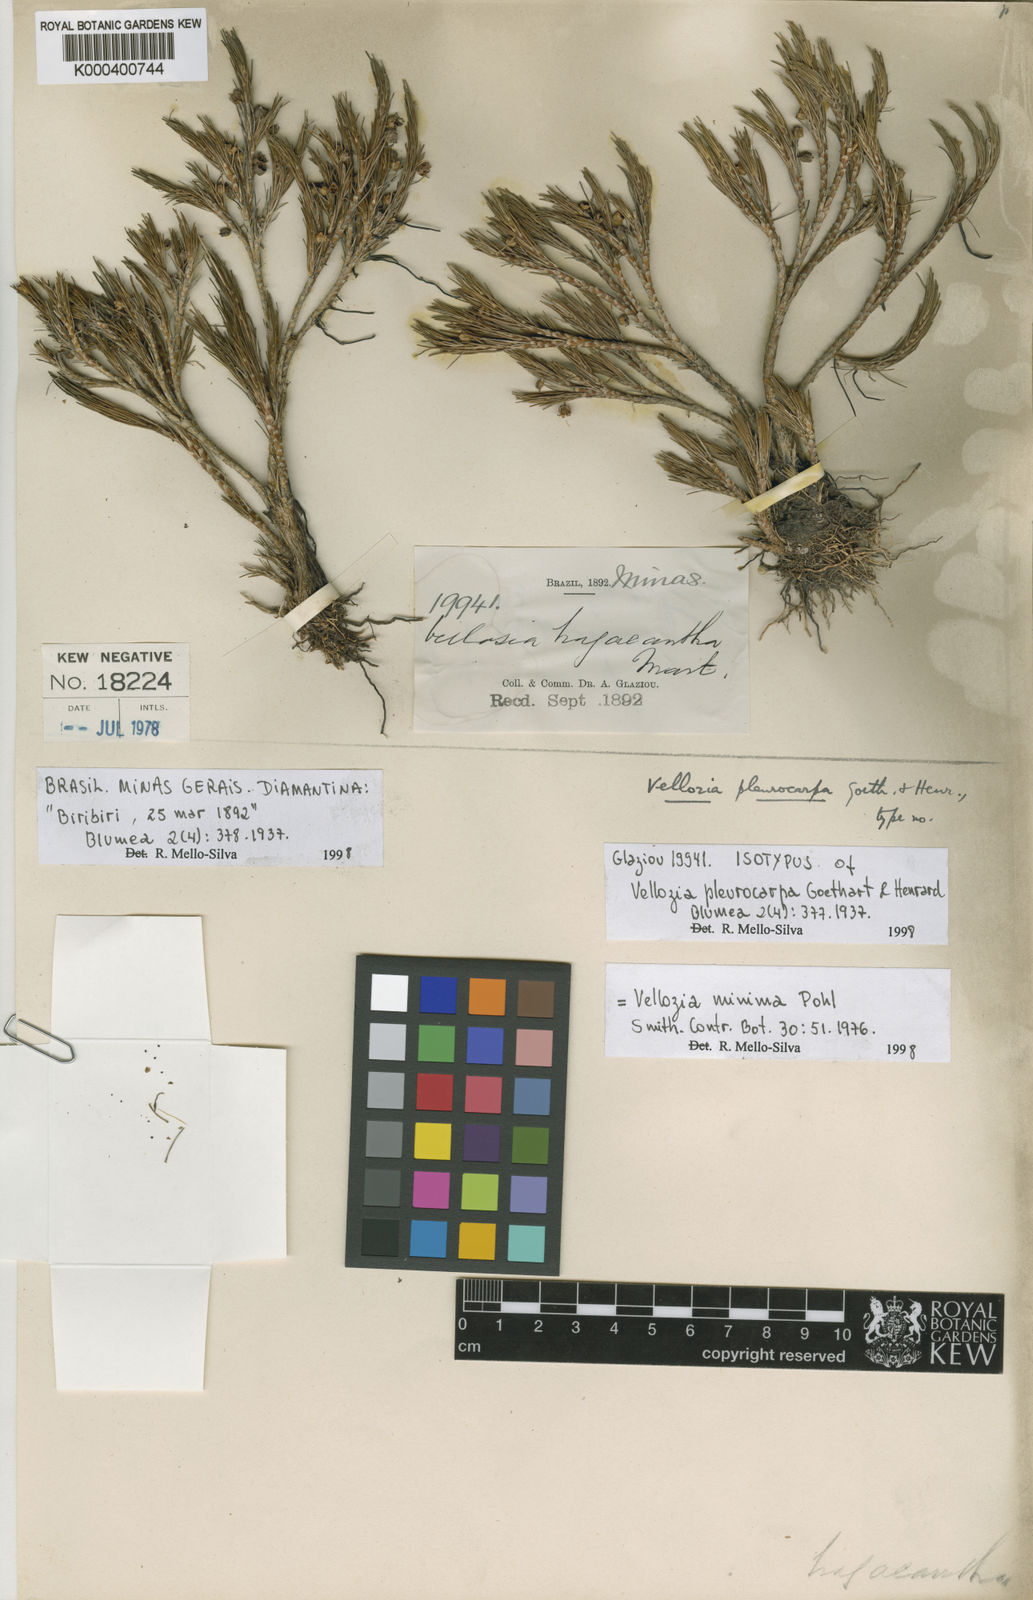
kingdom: Plantae
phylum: Tracheophyta
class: Liliopsida
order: Pandanales
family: Velloziaceae
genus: Vellozia
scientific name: Vellozia minima
